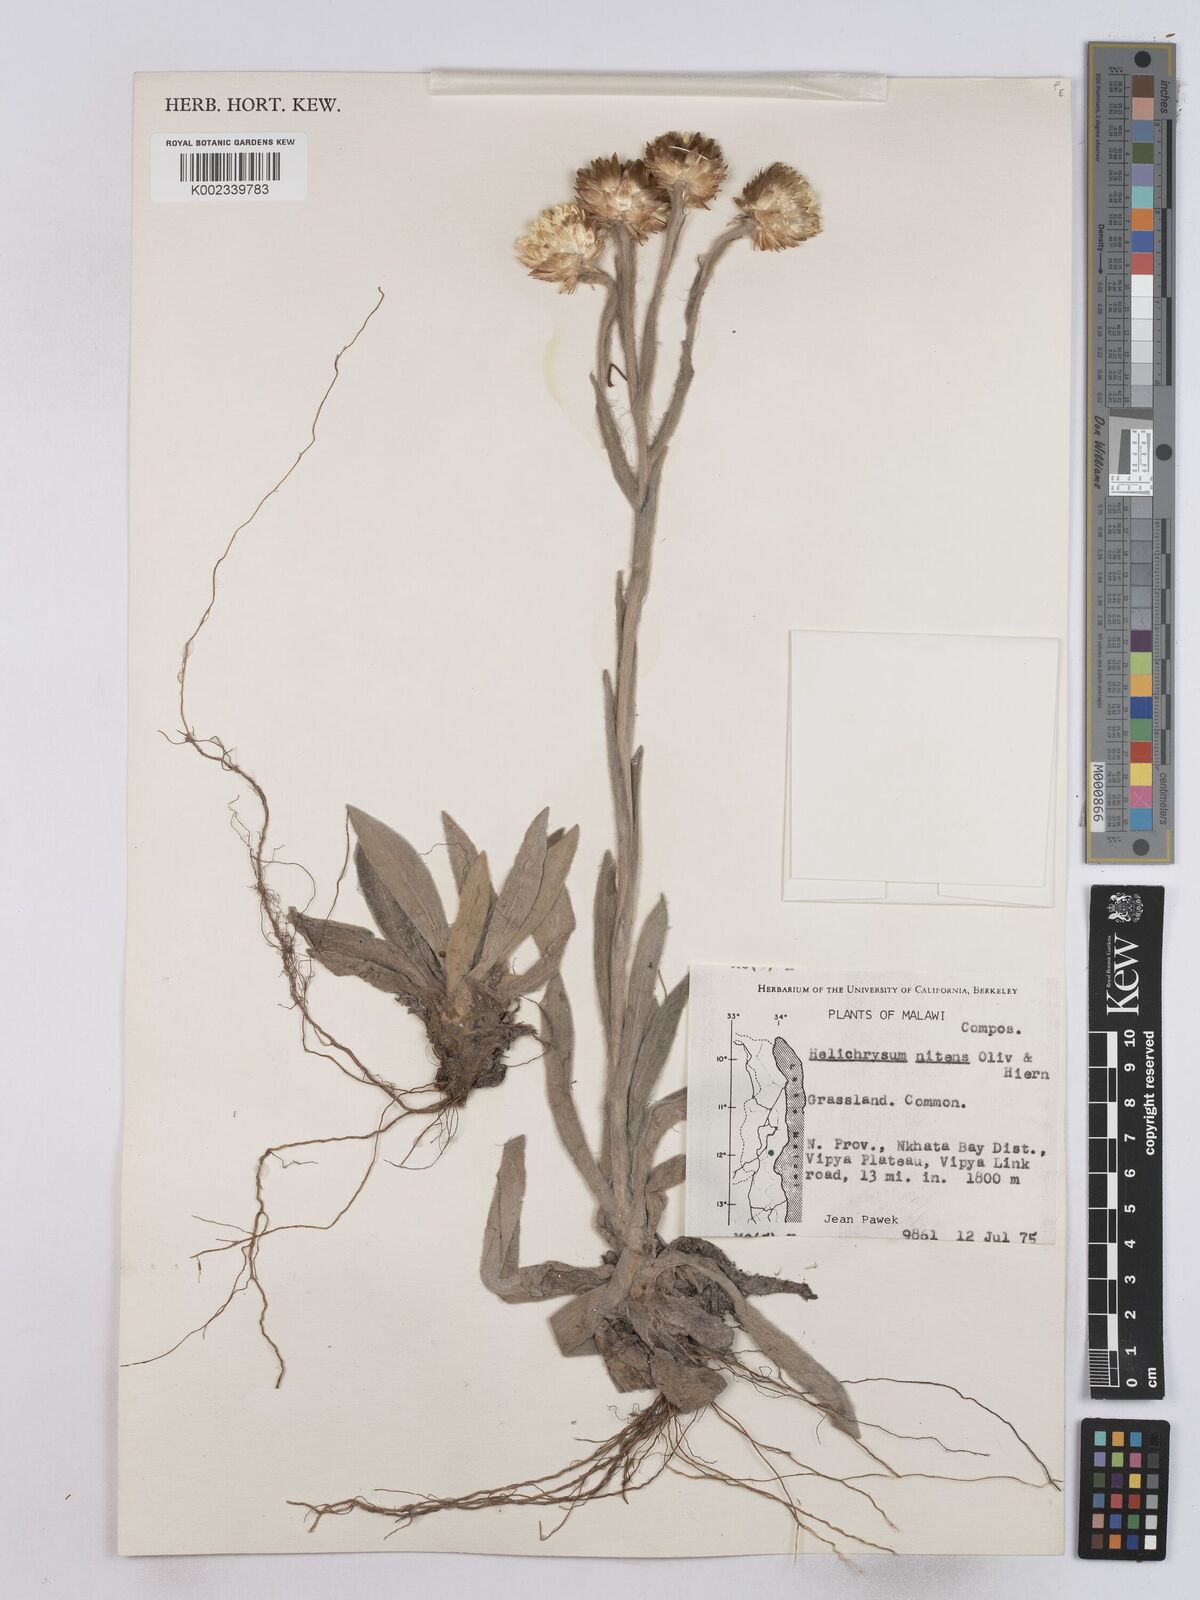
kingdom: Plantae
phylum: Tracheophyta
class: Magnoliopsida
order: Asterales
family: Asteraceae
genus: Helichrysum
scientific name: Helichrysum nitens
